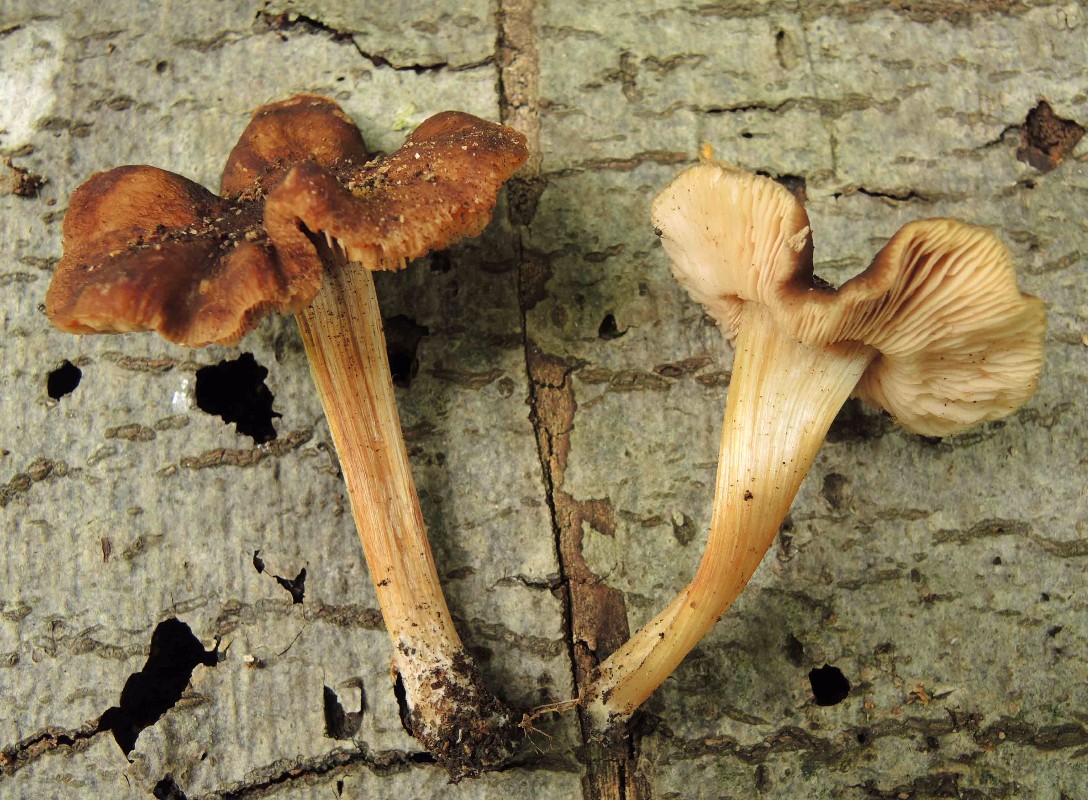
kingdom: Fungi
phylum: Basidiomycota
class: Agaricomycetes
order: Agaricales
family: Pluteaceae
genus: Pluteus
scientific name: Pluteus phlebophorus
